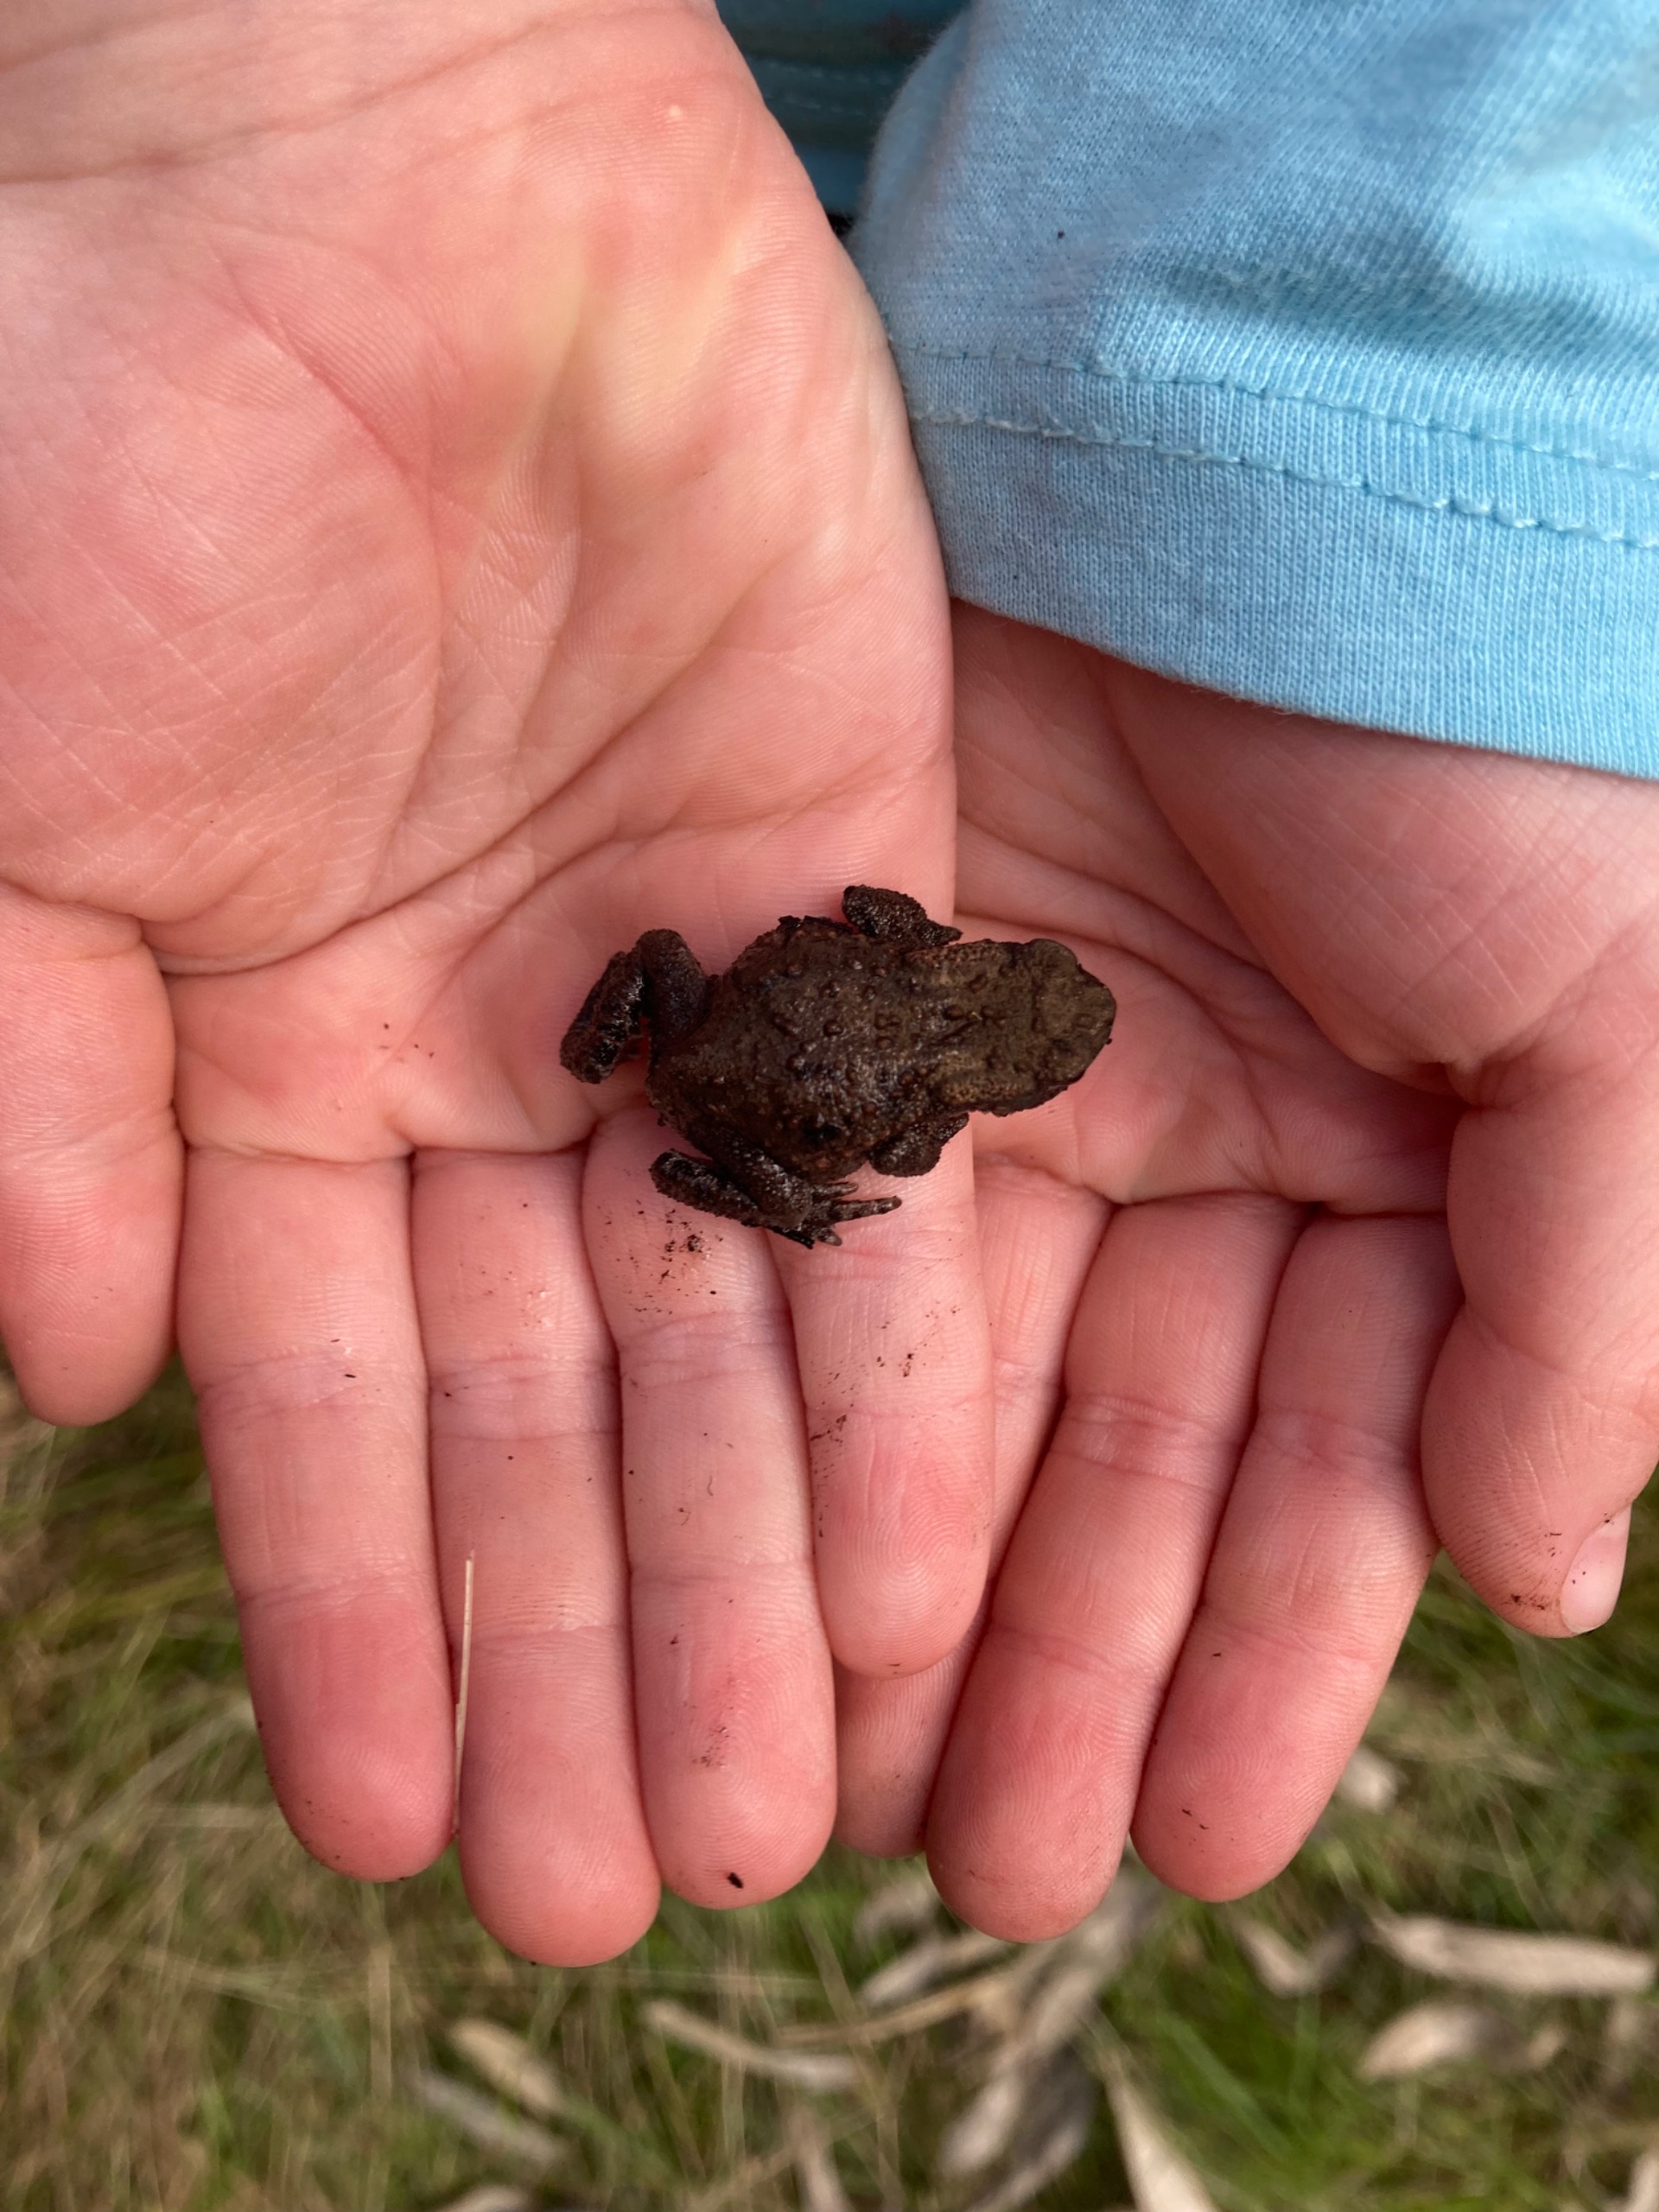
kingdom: Animalia
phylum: Chordata
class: Amphibia
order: Anura
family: Bufonidae
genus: Bufo
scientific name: Bufo bufo
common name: Skrubtudse
